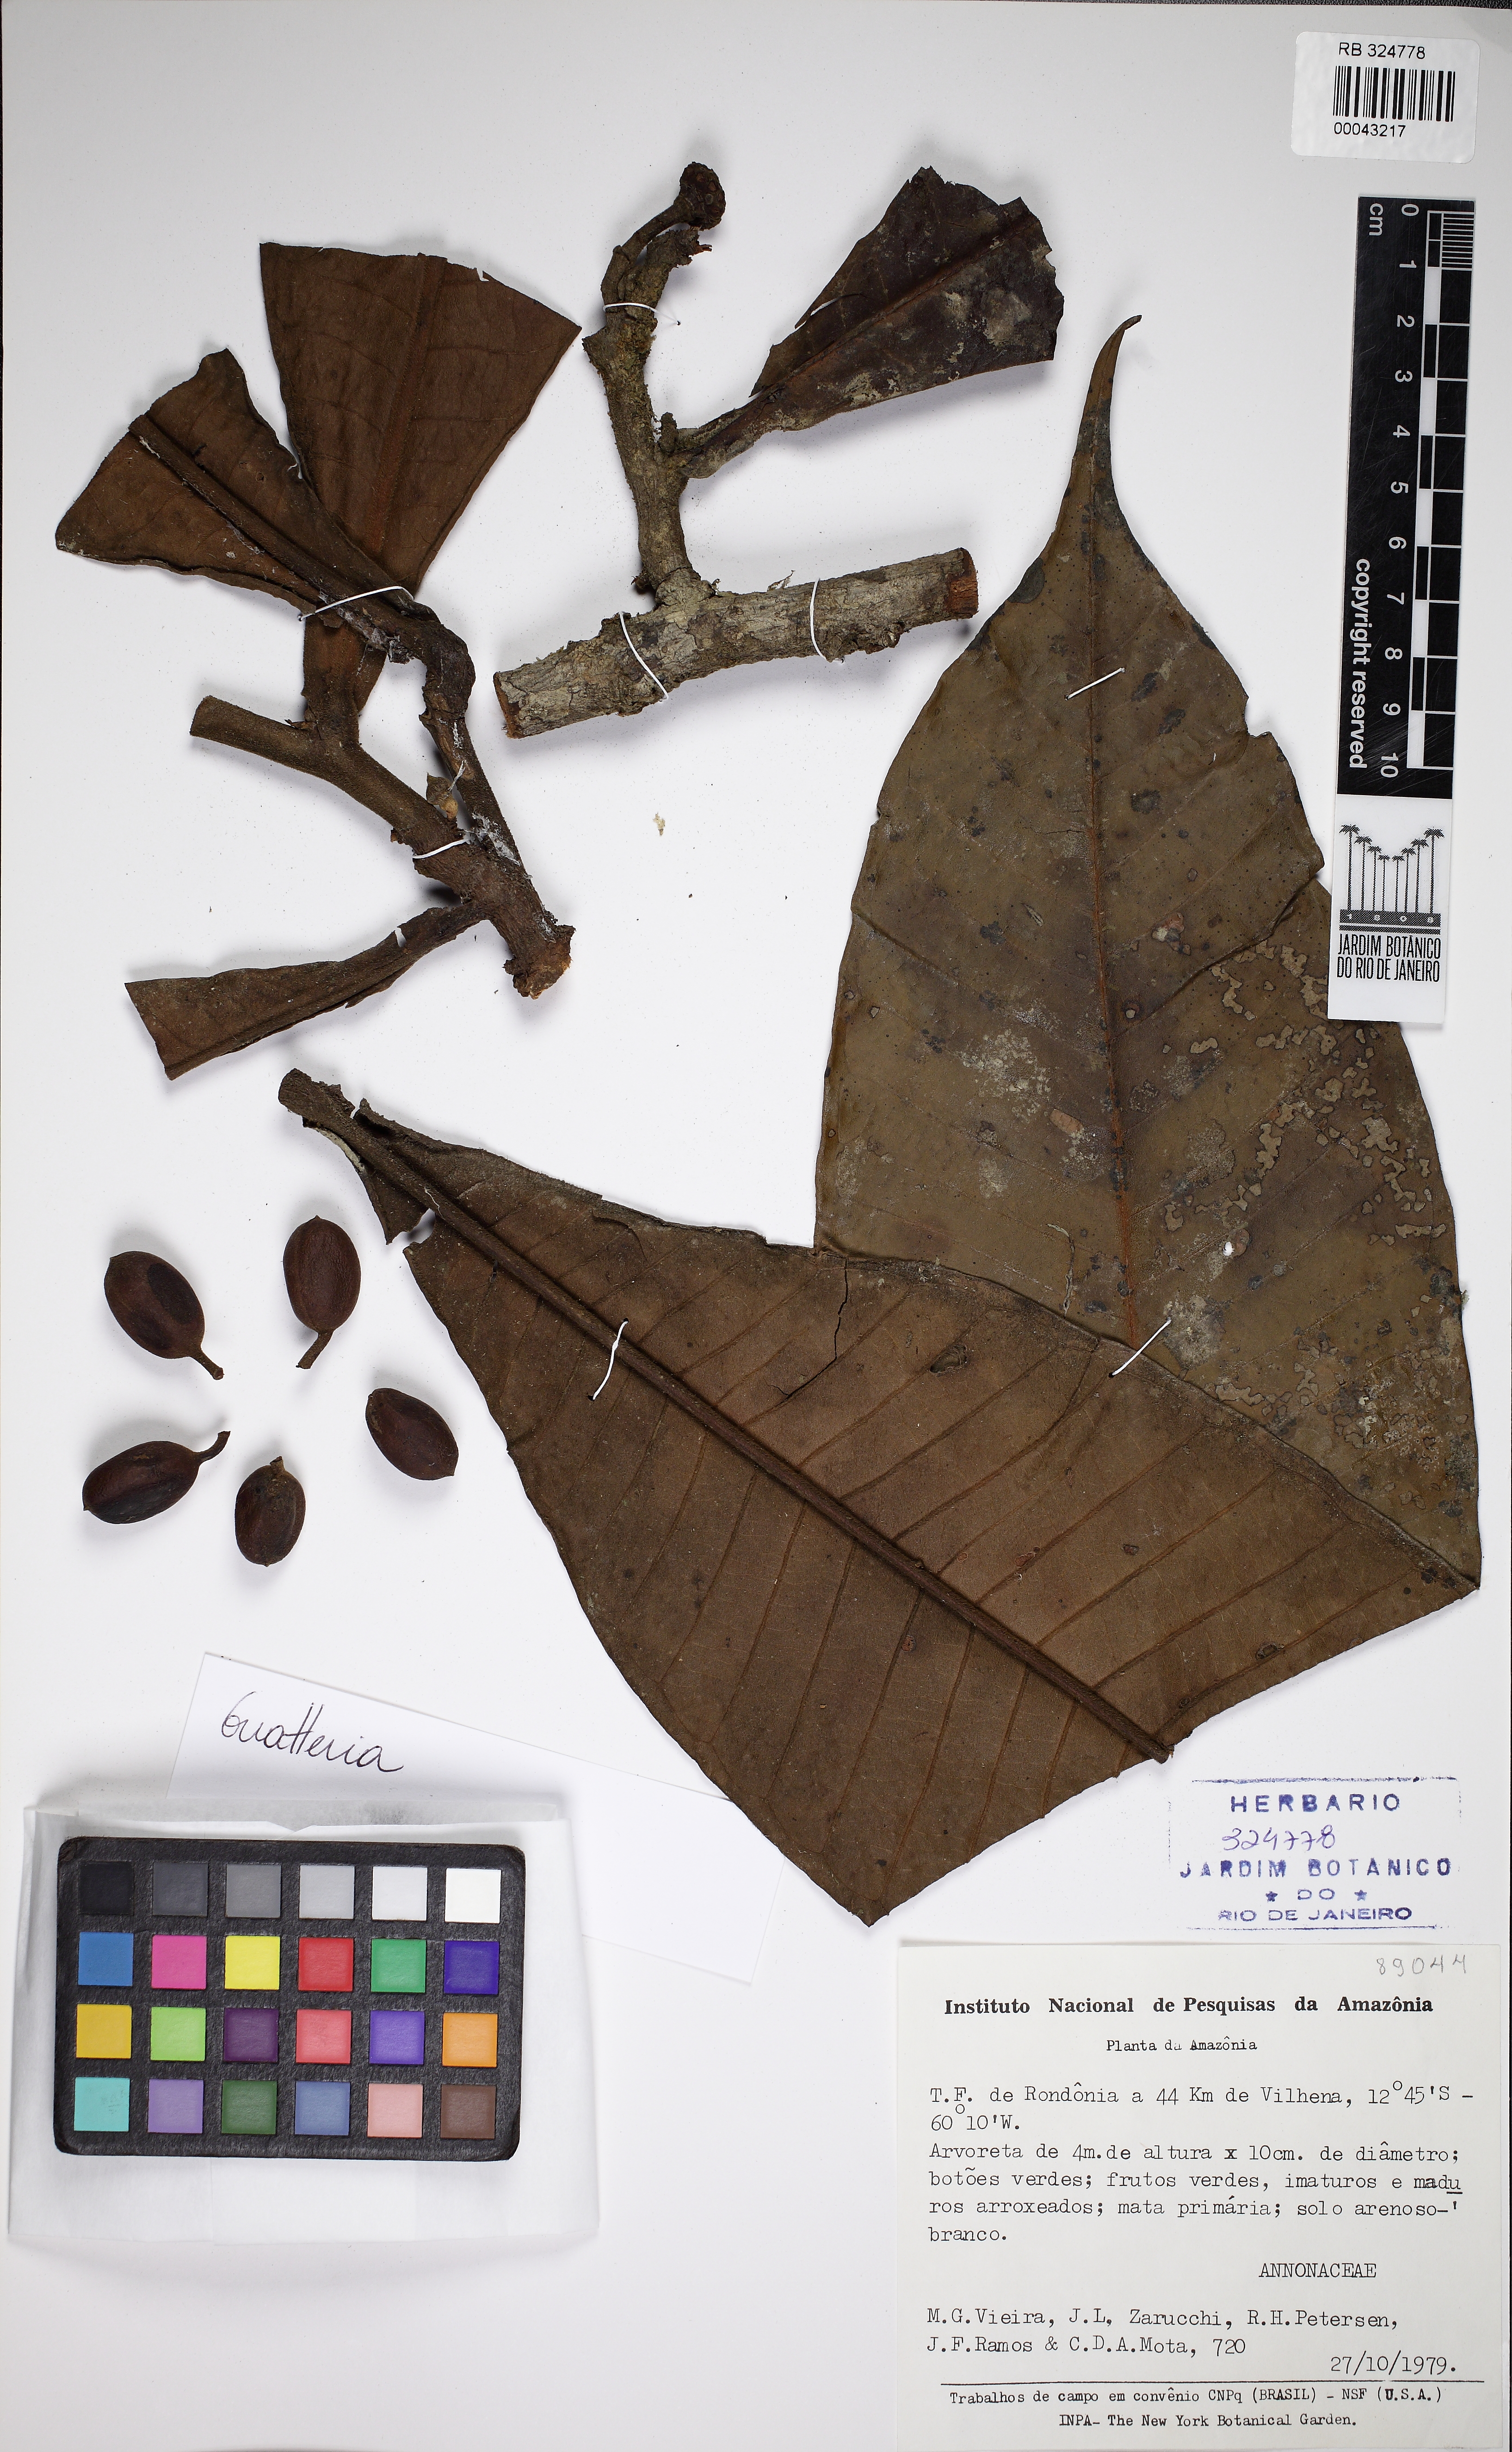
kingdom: Plantae
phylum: Tracheophyta
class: Magnoliopsida
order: Magnoliales
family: Annonaceae
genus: Guatteria
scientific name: Guatteria guianensis
